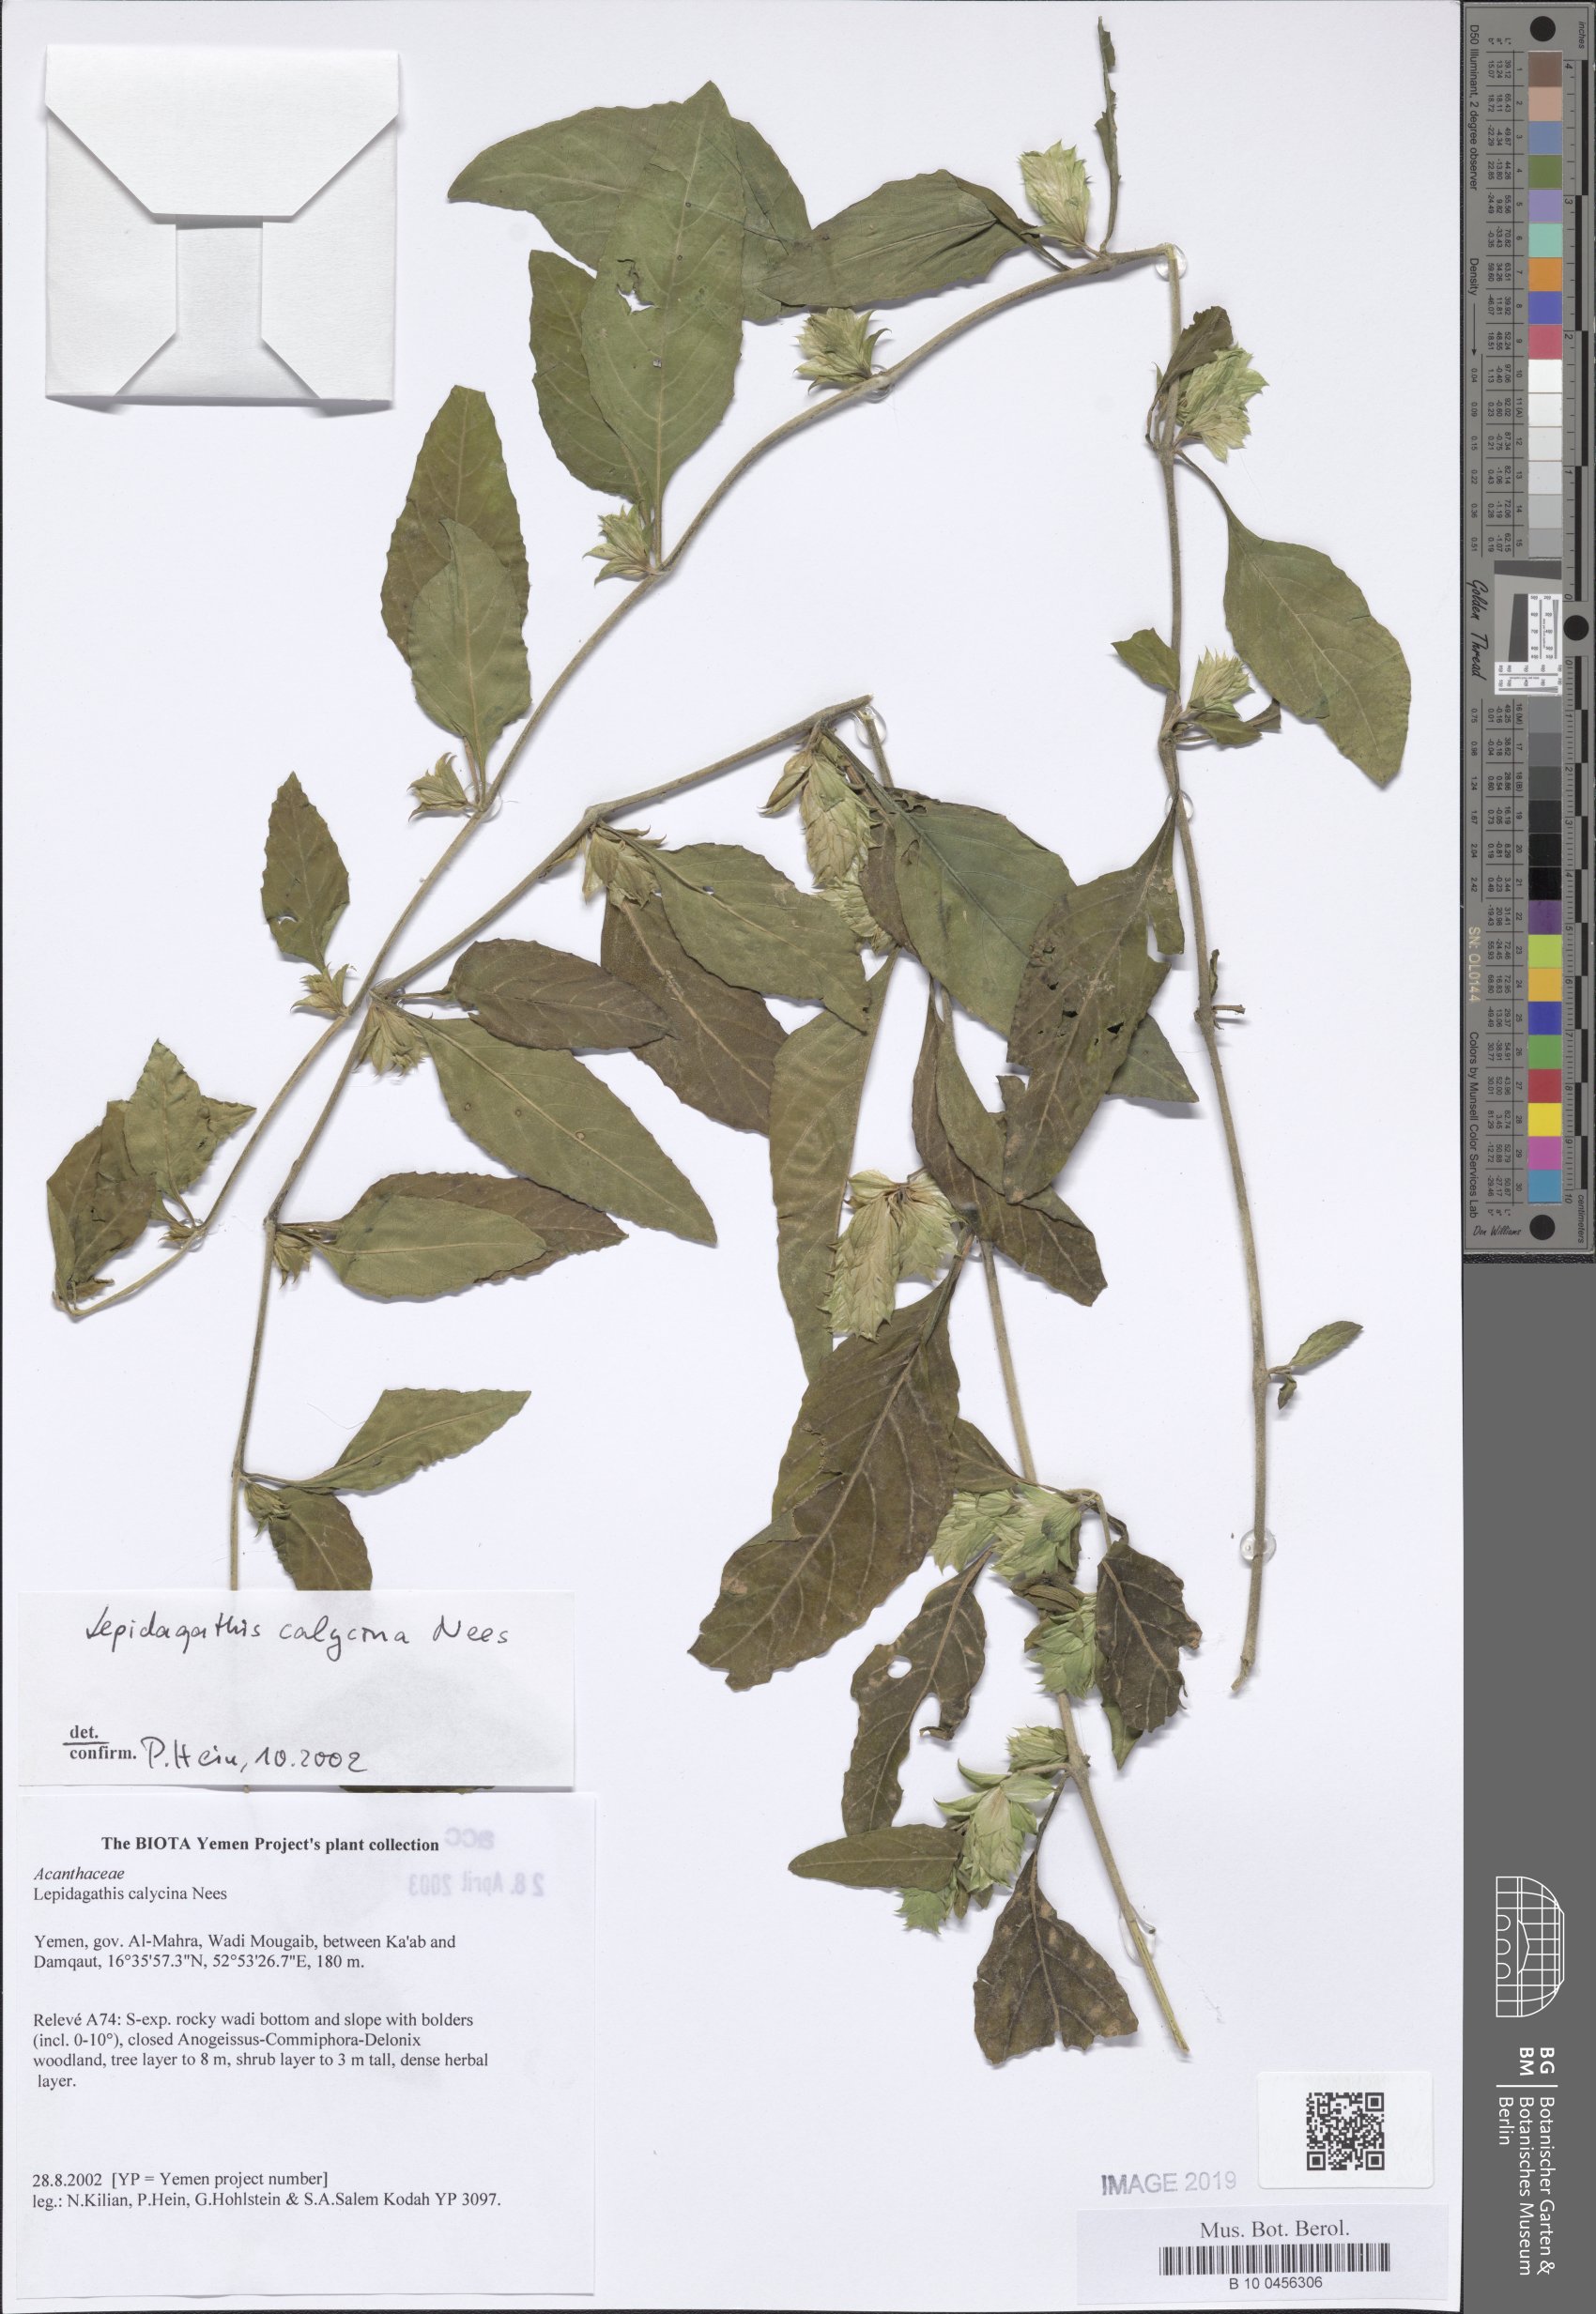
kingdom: Plantae
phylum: Tracheophyta
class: Magnoliopsida
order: Lamiales
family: Acanthaceae
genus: Lepidagathis
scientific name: Lepidagathis calycina
